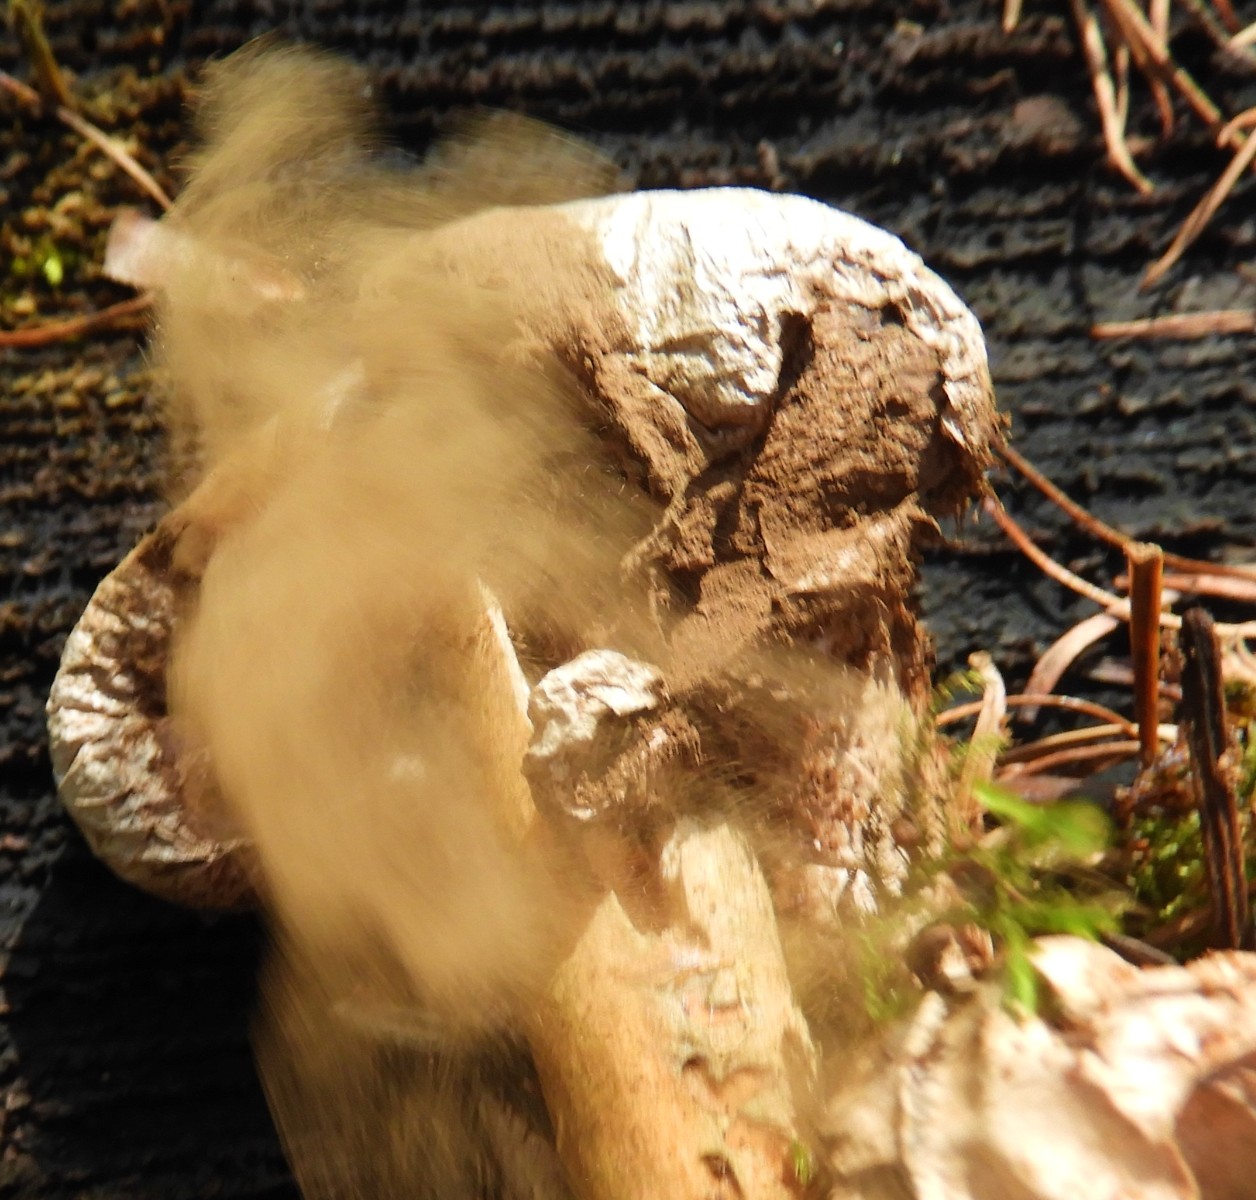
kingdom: Fungi
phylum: Basidiomycota
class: Agaricomycetes
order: Agaricales
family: Agaricaceae
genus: Lycoperdon
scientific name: Lycoperdon
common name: støvbold
